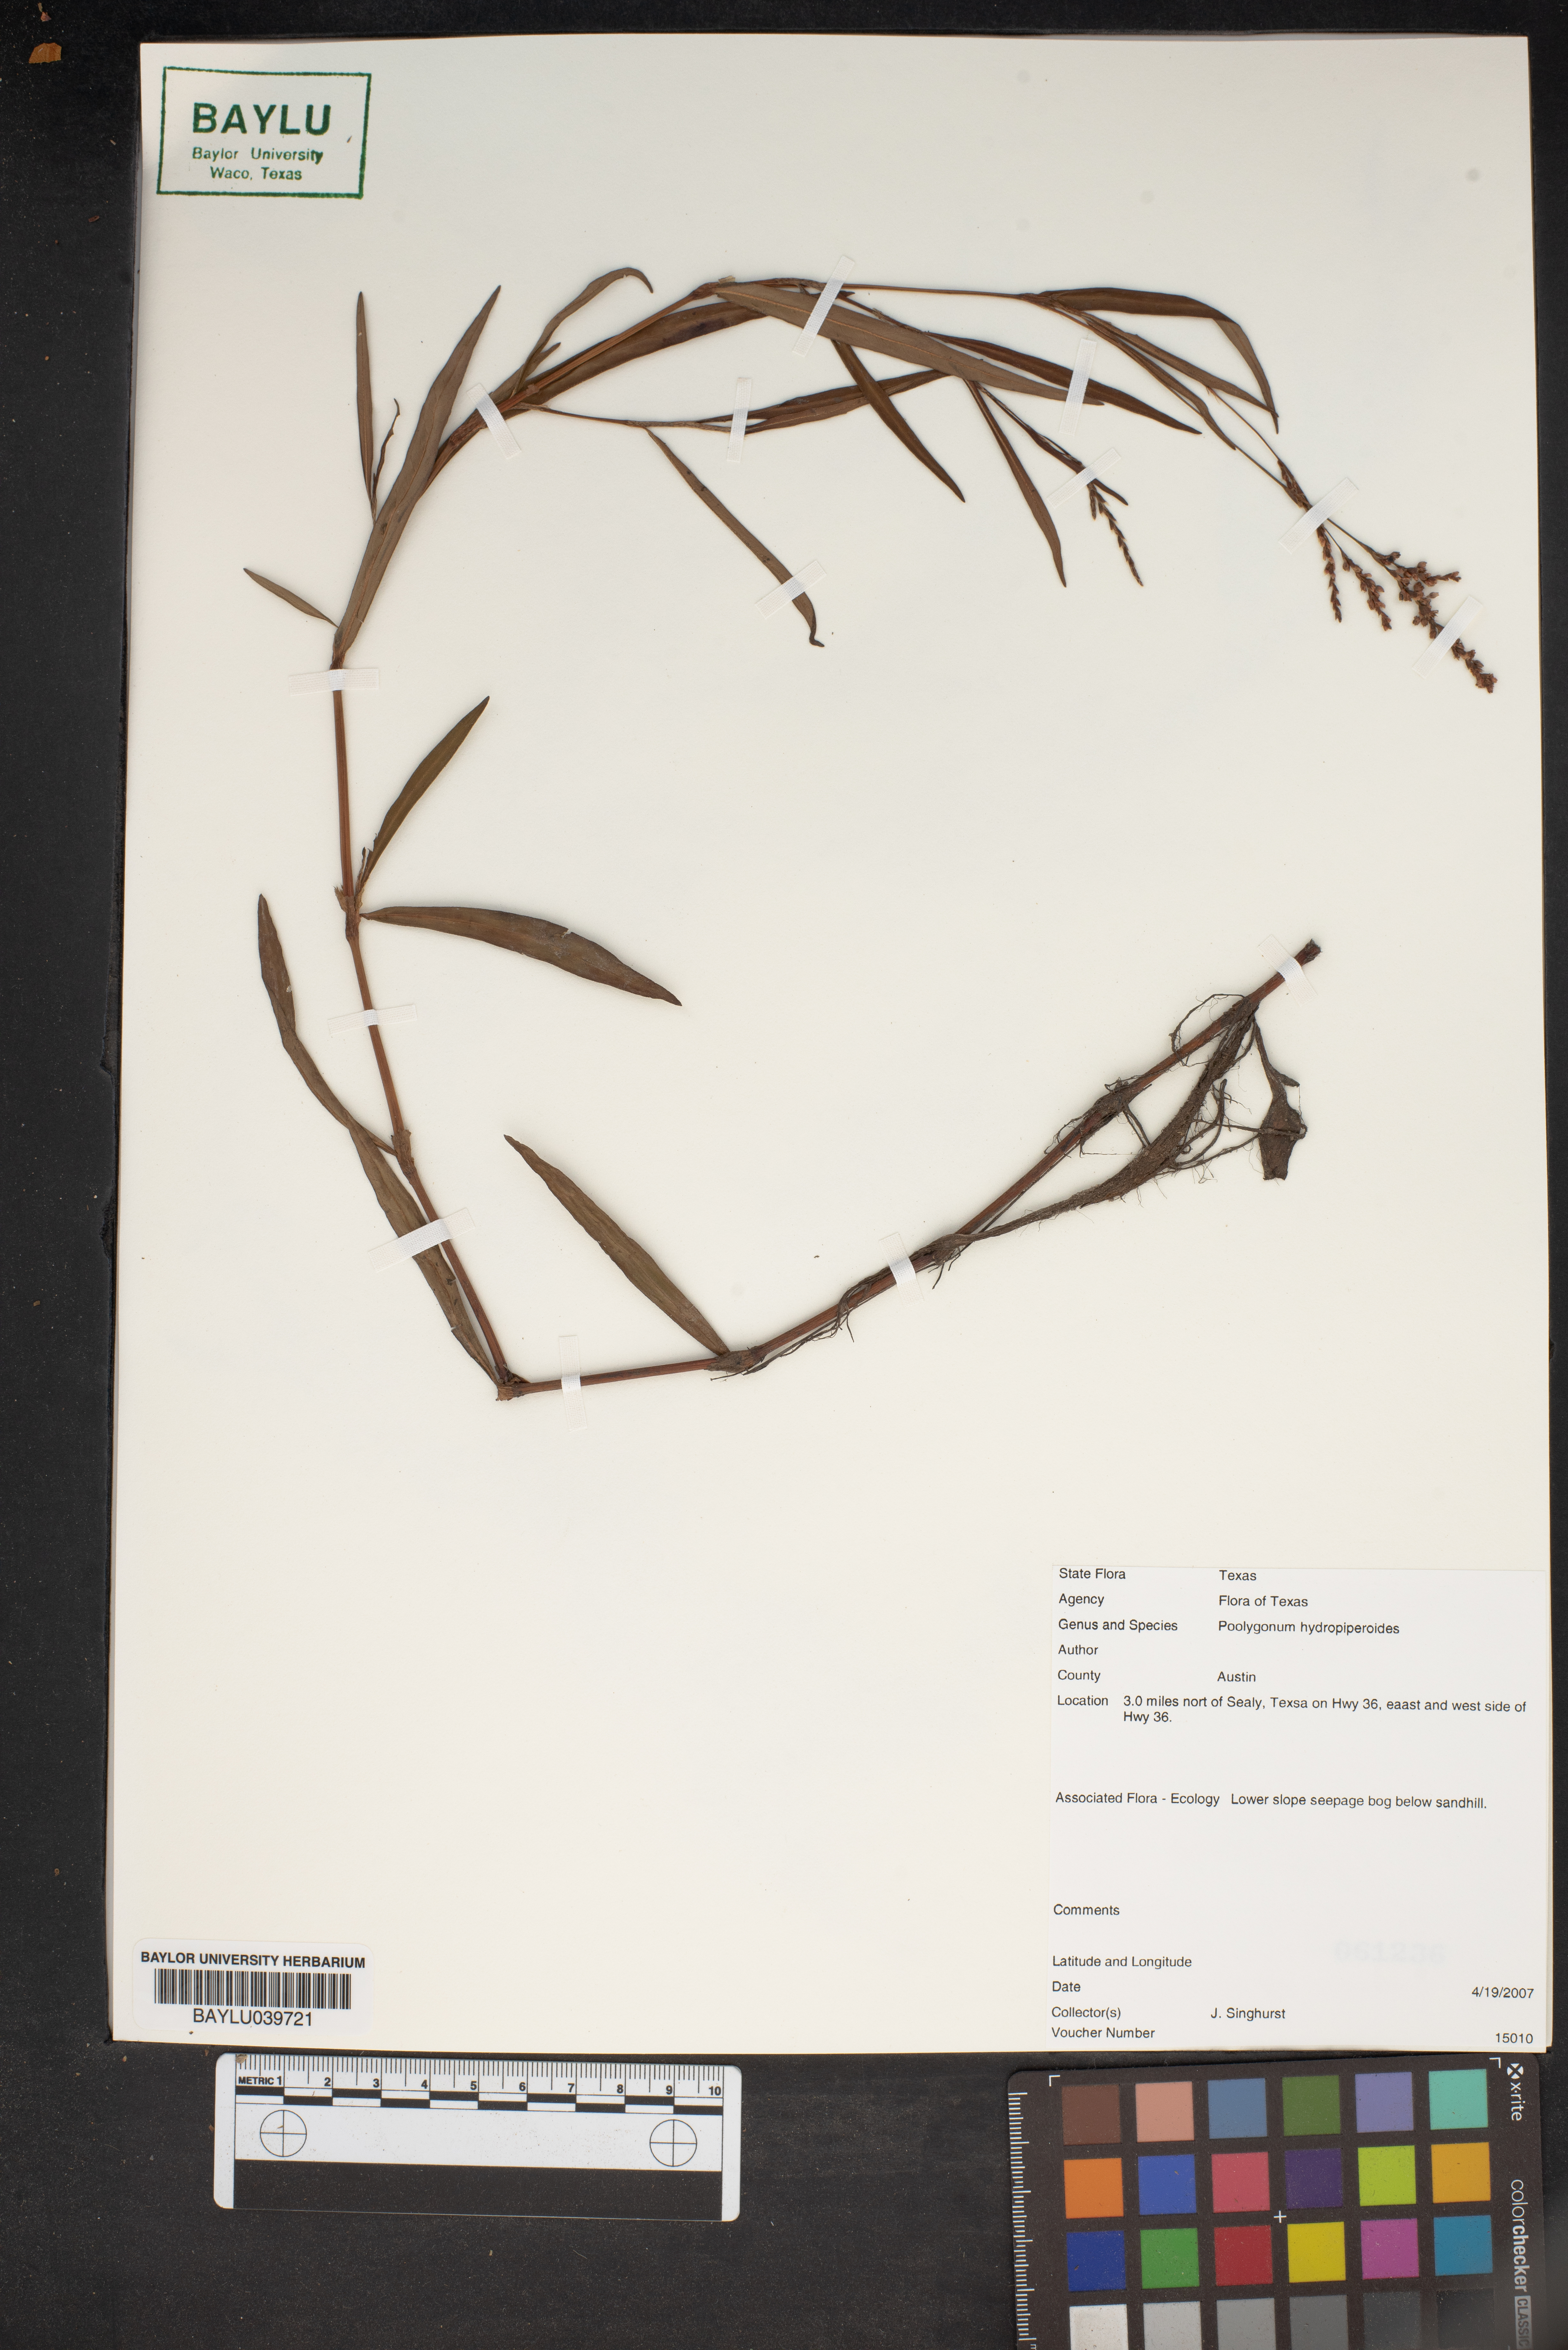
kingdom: Plantae
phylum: Tracheophyta
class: Magnoliopsida
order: Caryophyllales
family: Polygonaceae
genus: Persicaria
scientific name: Persicaria hydropiperoides
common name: Swamp smartweed
